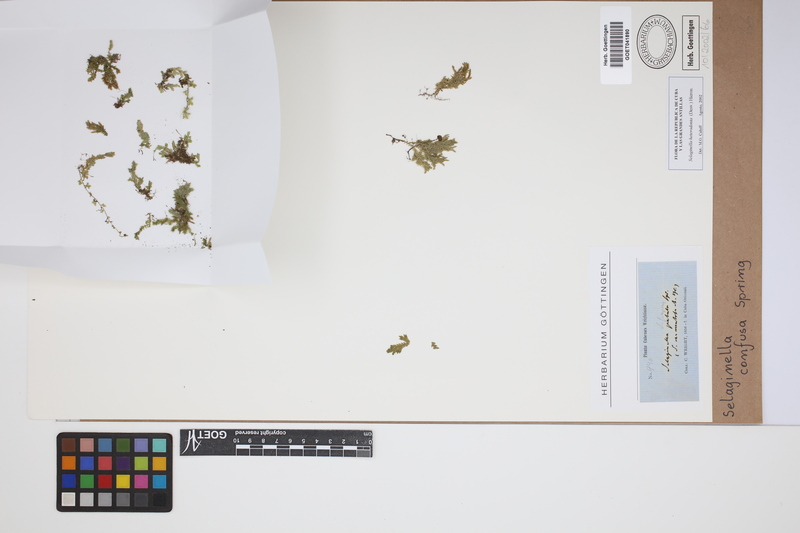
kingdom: Plantae
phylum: Tracheophyta
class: Lycopodiopsida
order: Selaginellales
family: Selaginellaceae
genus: Selaginella
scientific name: Selaginella confusa
